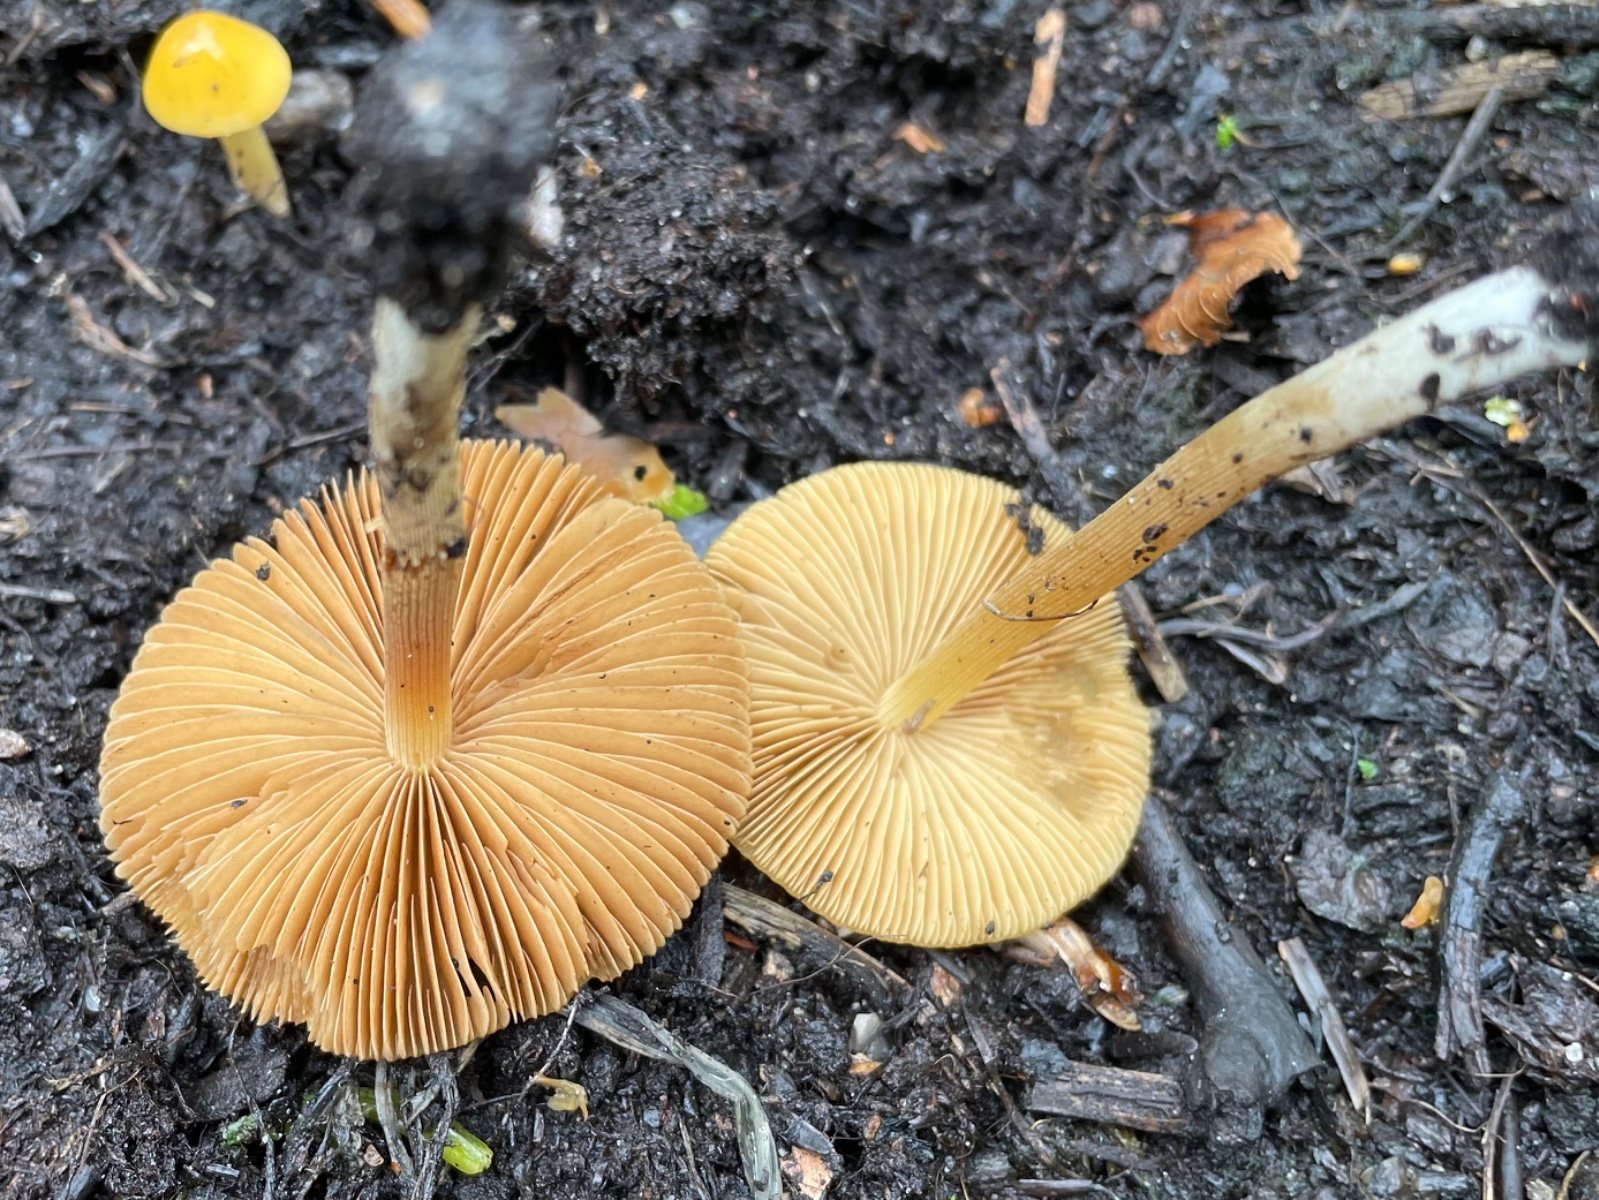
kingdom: Fungi
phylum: Basidiomycota
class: Agaricomycetes
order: Agaricales
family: Bolbitiaceae
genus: Conocybe
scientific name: Conocybe aurea
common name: gylden keglehat
